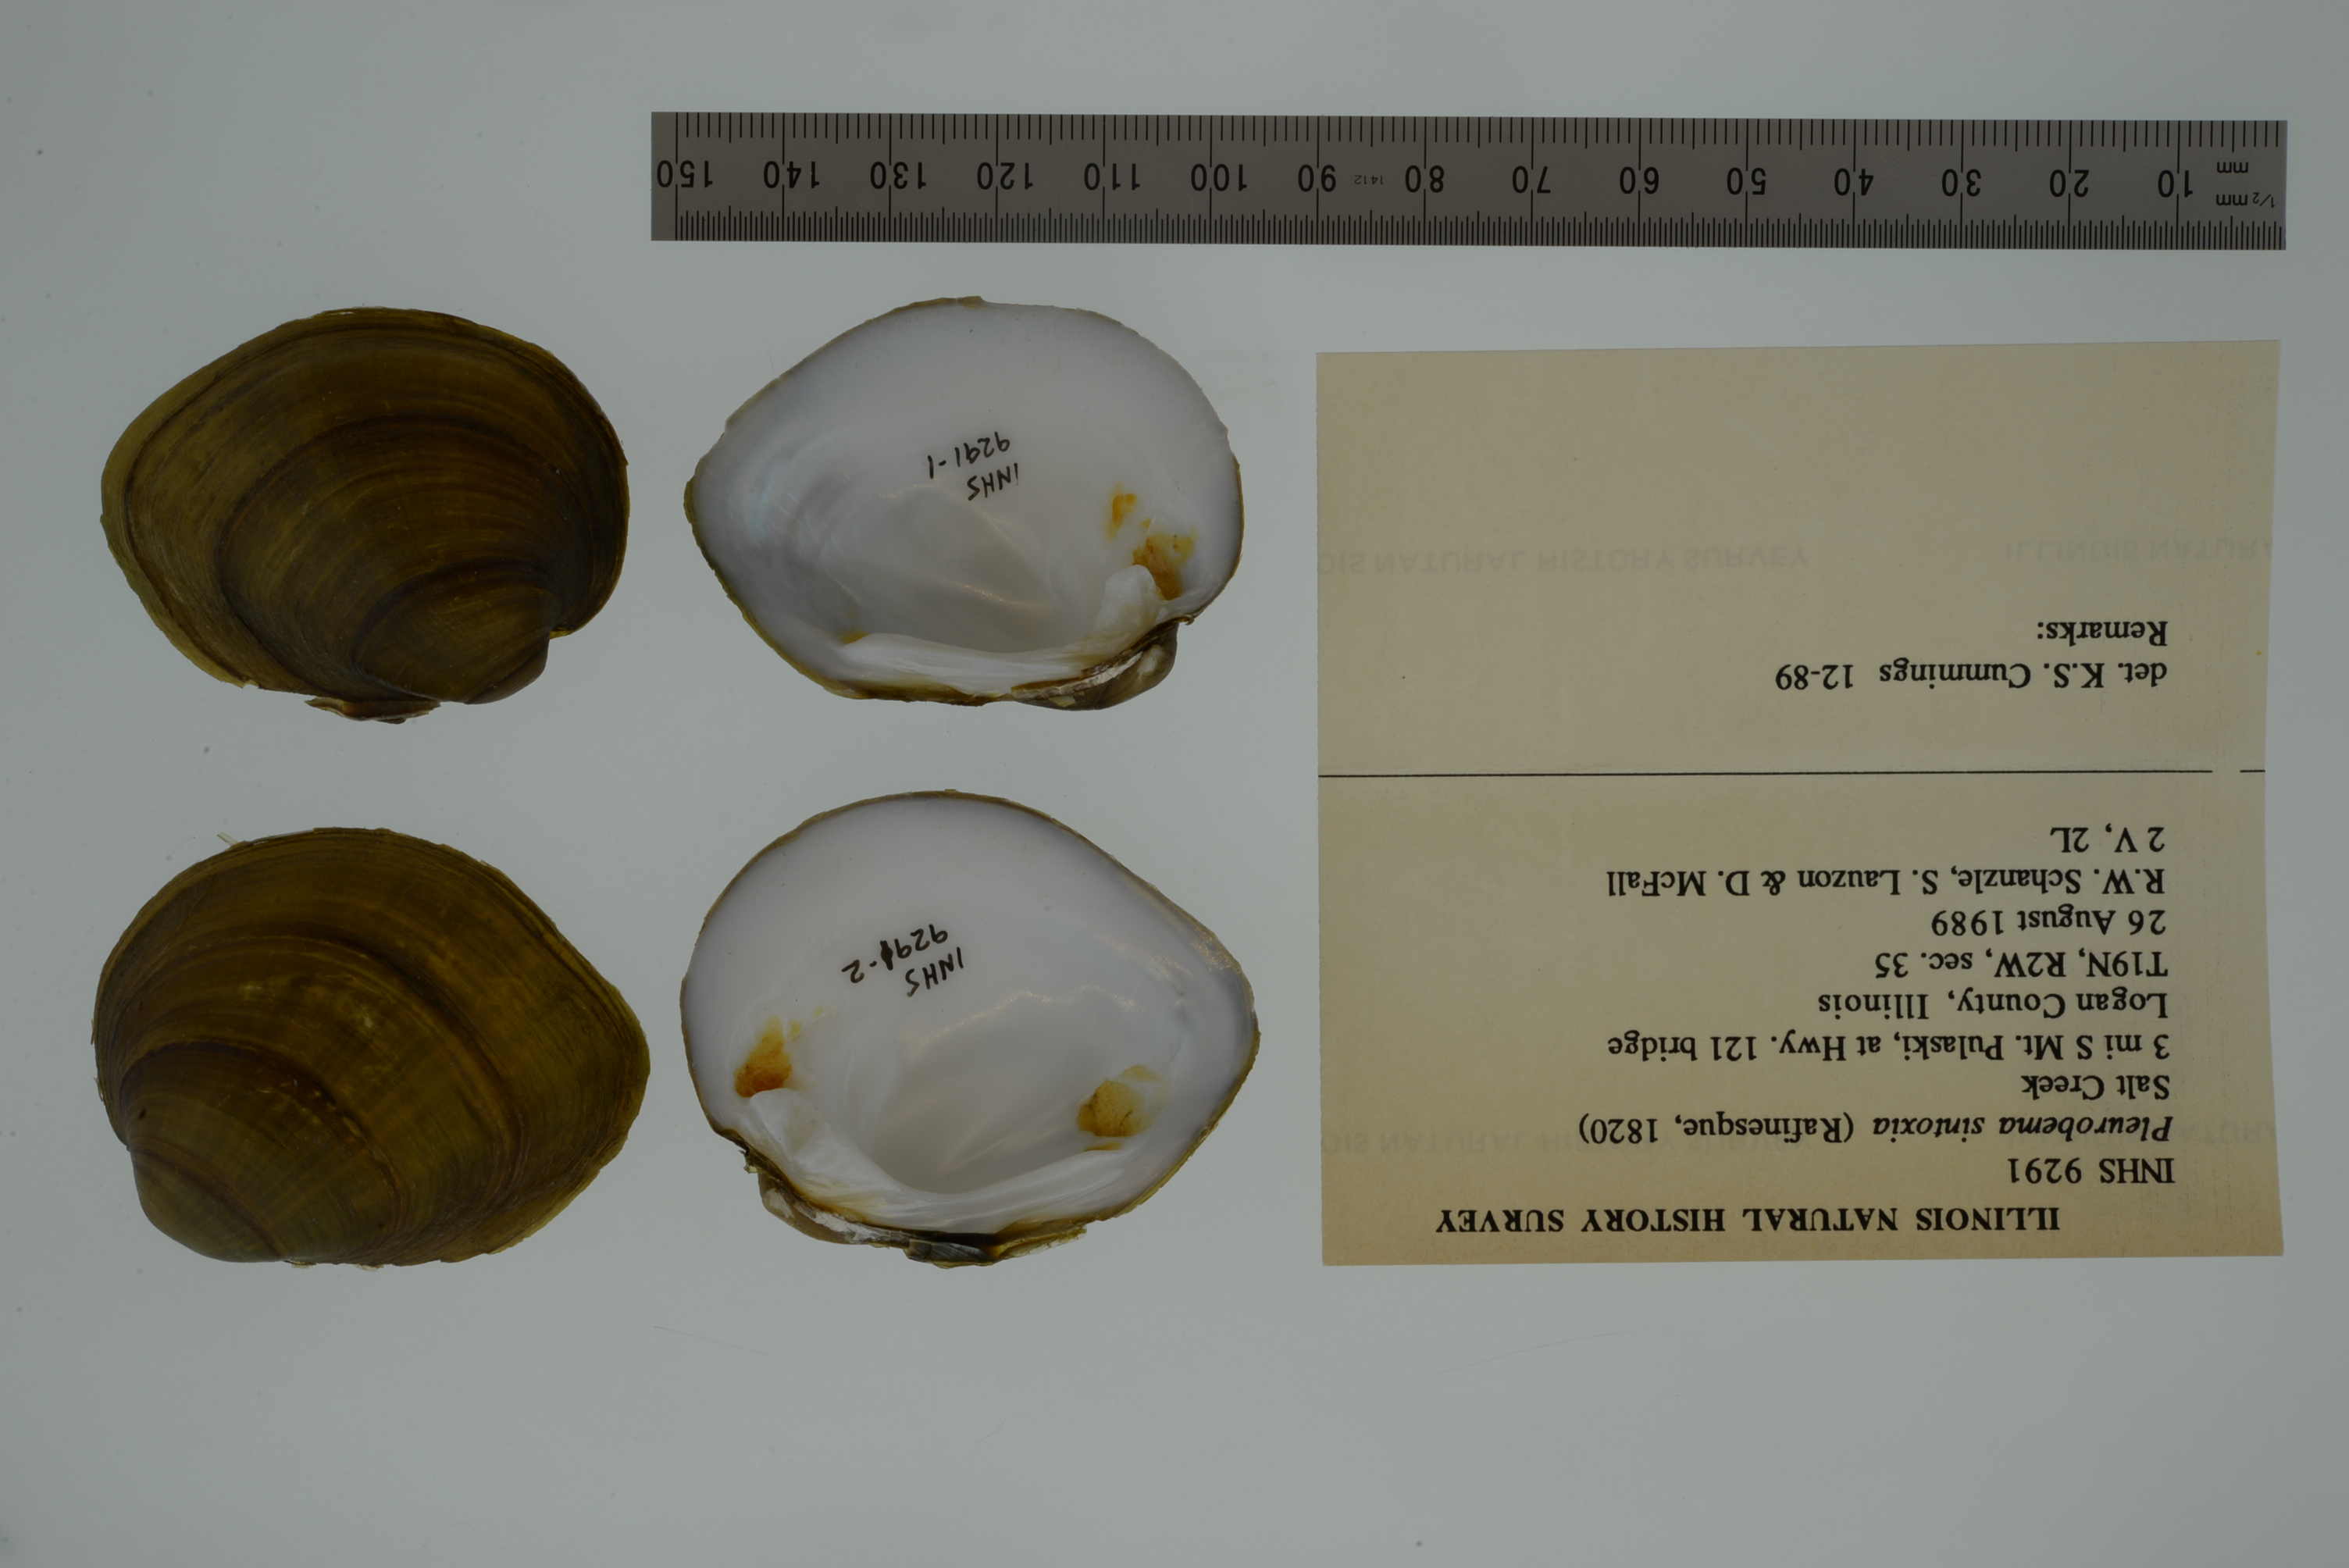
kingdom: Animalia
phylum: Mollusca
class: Bivalvia
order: Unionida
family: Unionidae
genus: Pleurobema
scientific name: Pleurobema sintoxia
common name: Round pigtoe
